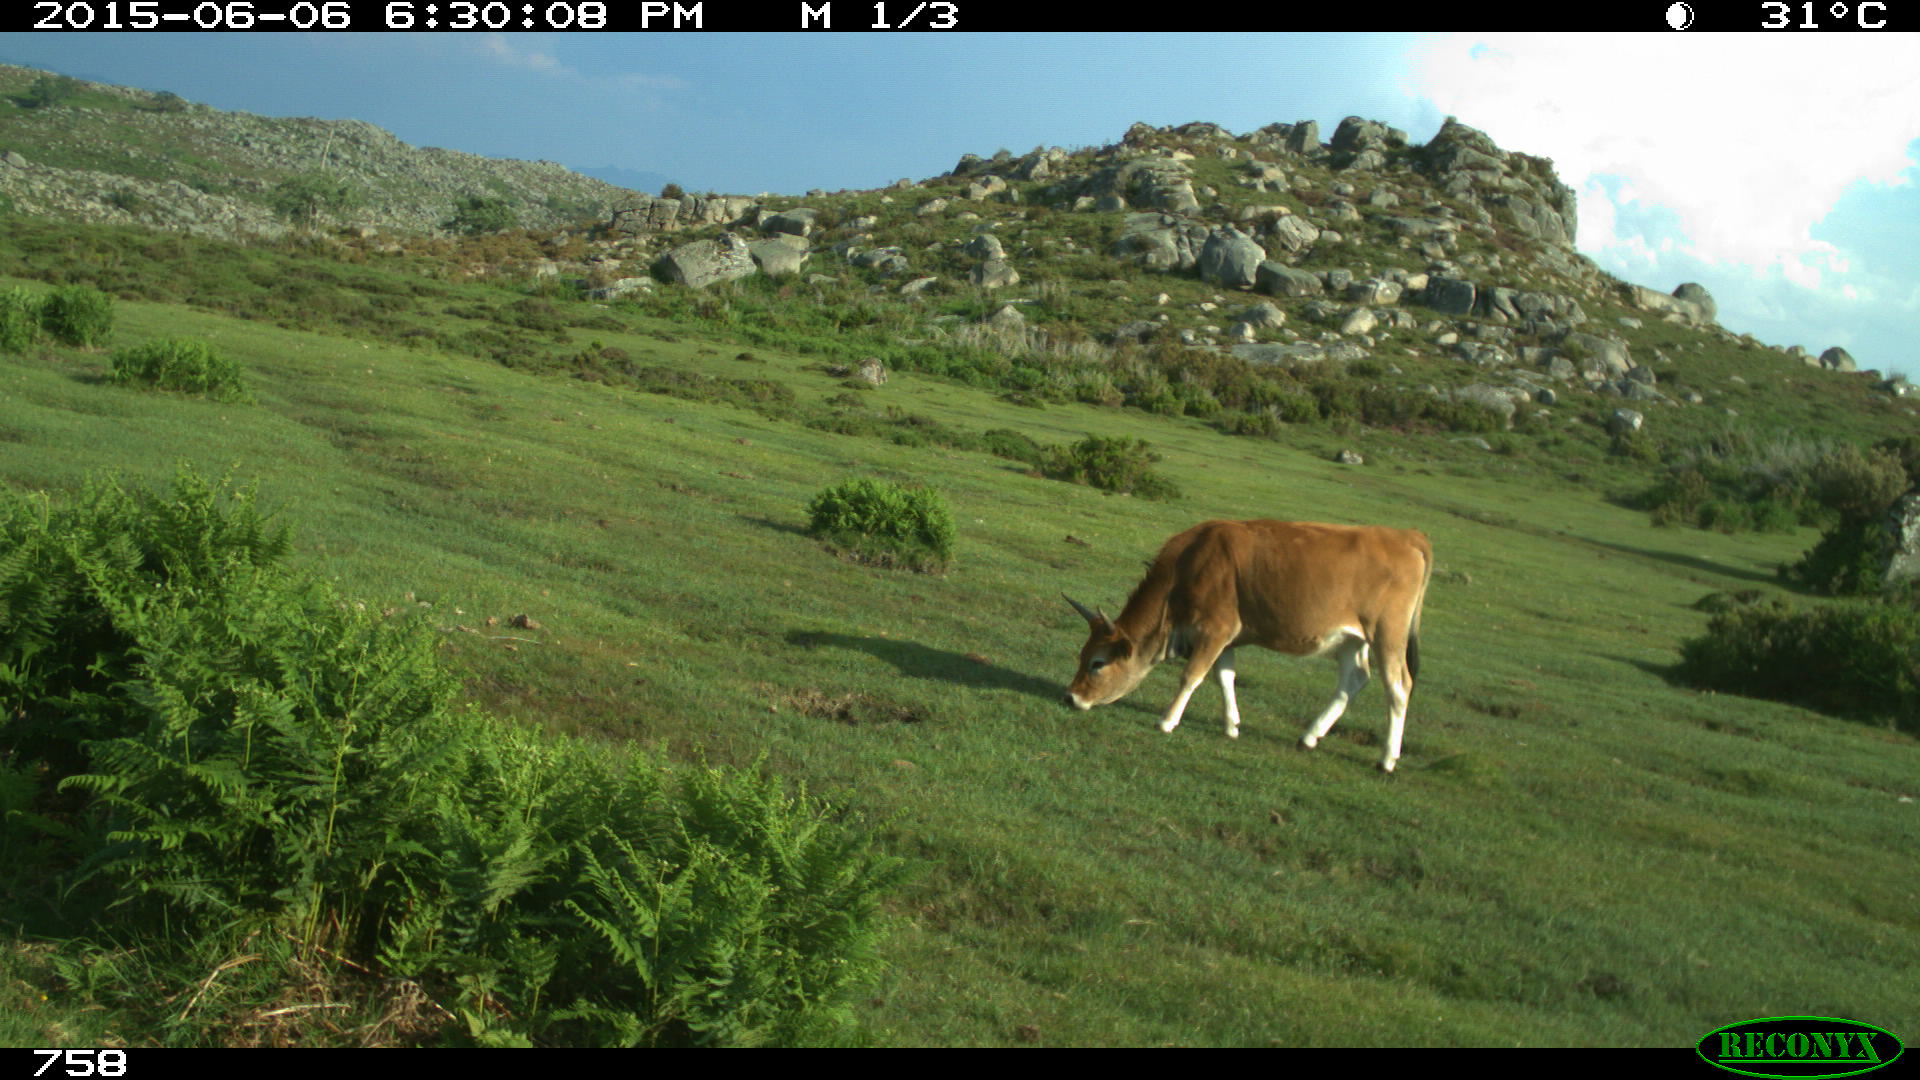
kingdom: Animalia
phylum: Chordata
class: Mammalia
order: Artiodactyla
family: Bovidae
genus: Bos
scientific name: Bos taurus
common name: Domesticated cattle
